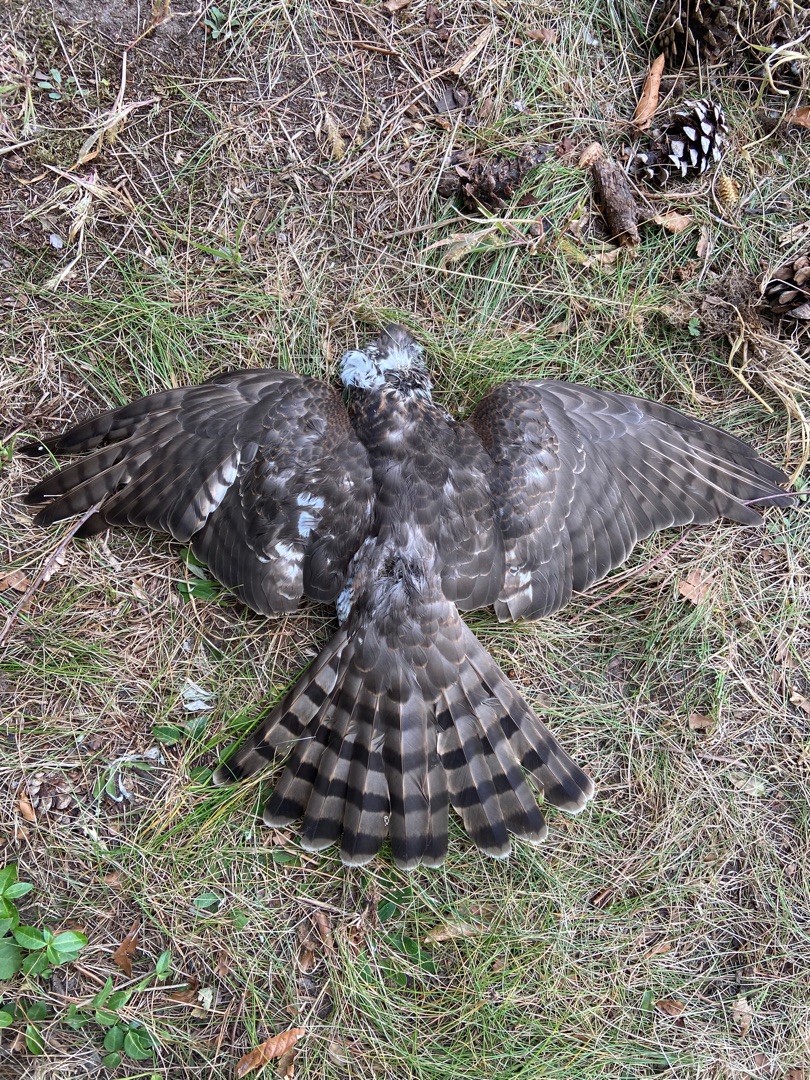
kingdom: Animalia
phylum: Chordata
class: Aves
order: Accipitriformes
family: Accipitridae
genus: Accipiter
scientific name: Accipiter nisus
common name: Spurvehøg
